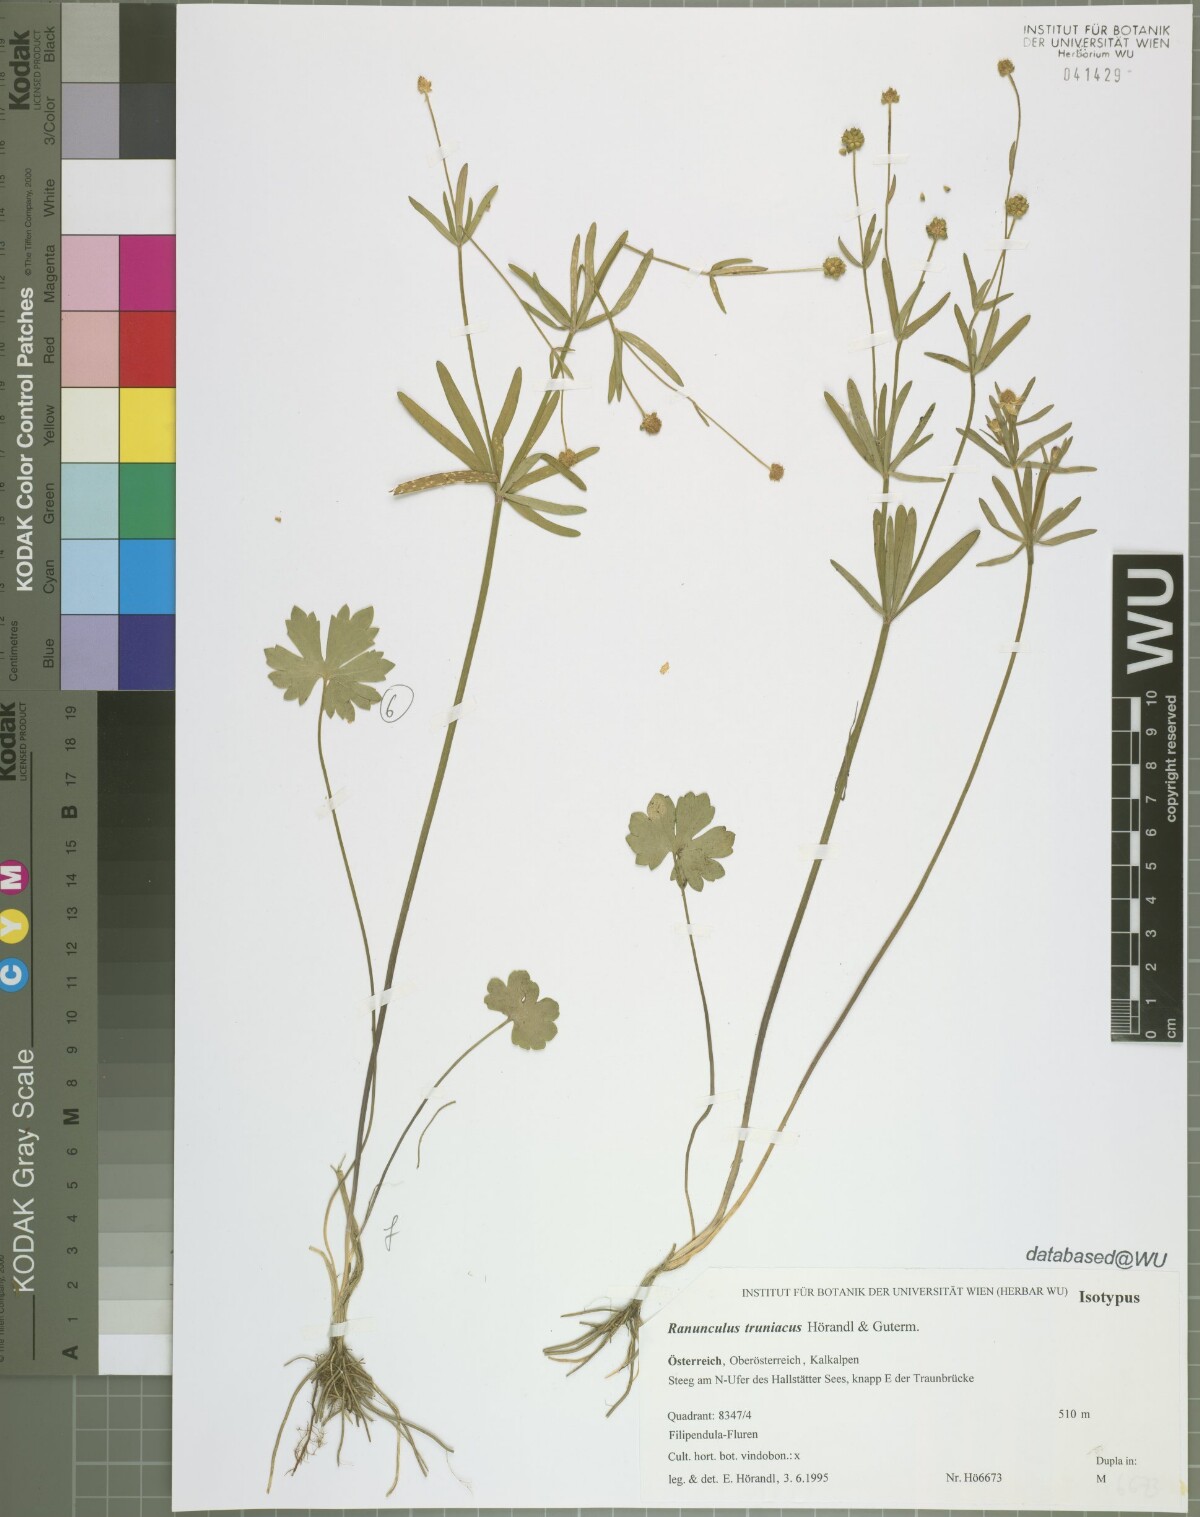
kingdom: Plantae
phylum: Tracheophyta
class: Magnoliopsida
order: Ranunculales
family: Ranunculaceae
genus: Ranunculus
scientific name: Ranunculus truniacus
